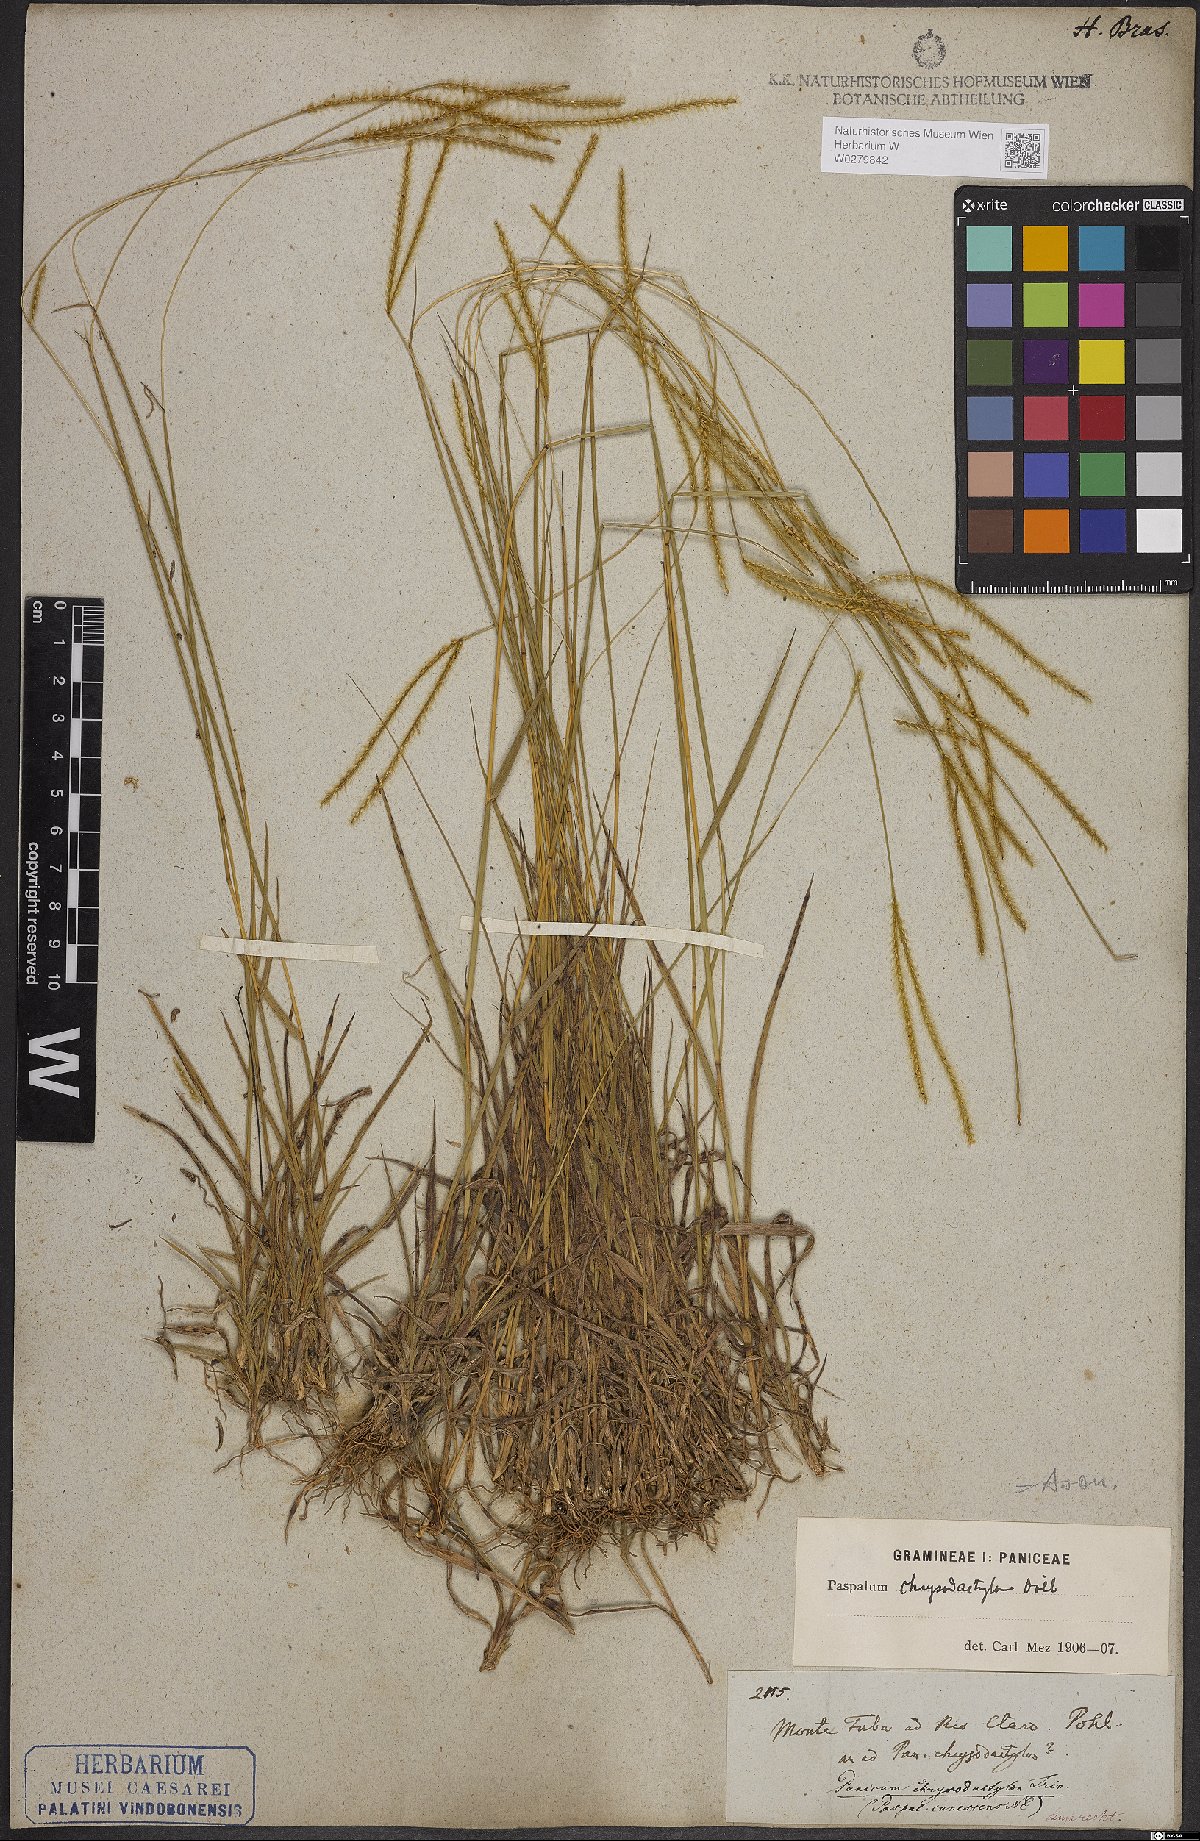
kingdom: Plantae
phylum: Tracheophyta
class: Liliopsida
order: Poales
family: Poaceae
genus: Axonopus
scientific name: Axonopus aureus
